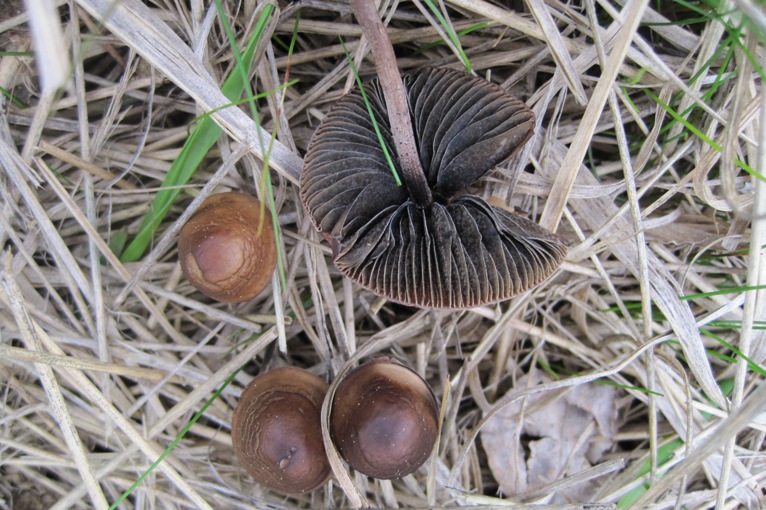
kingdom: Fungi
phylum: Basidiomycota
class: Agaricomycetes
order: Agaricales
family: Bolbitiaceae
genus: Panaeolus
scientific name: Panaeolus acuminatus
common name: høj glanshat
